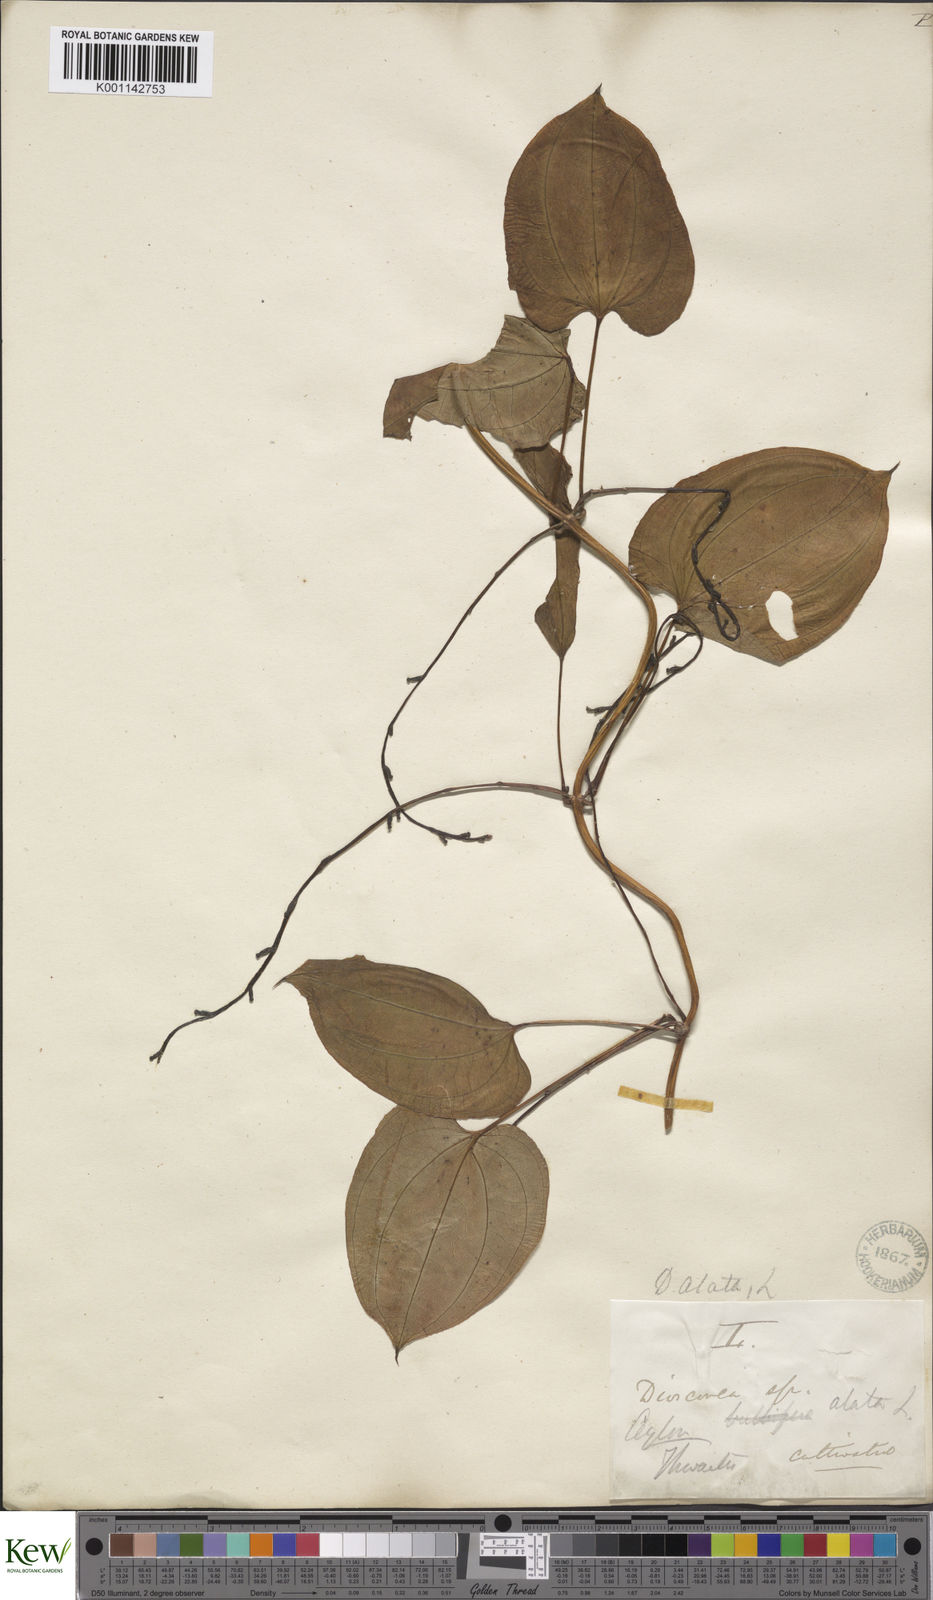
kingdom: Plantae
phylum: Tracheophyta
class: Liliopsida
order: Dioscoreales
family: Dioscoreaceae
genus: Dioscorea
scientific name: Dioscorea alata
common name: Water yam
